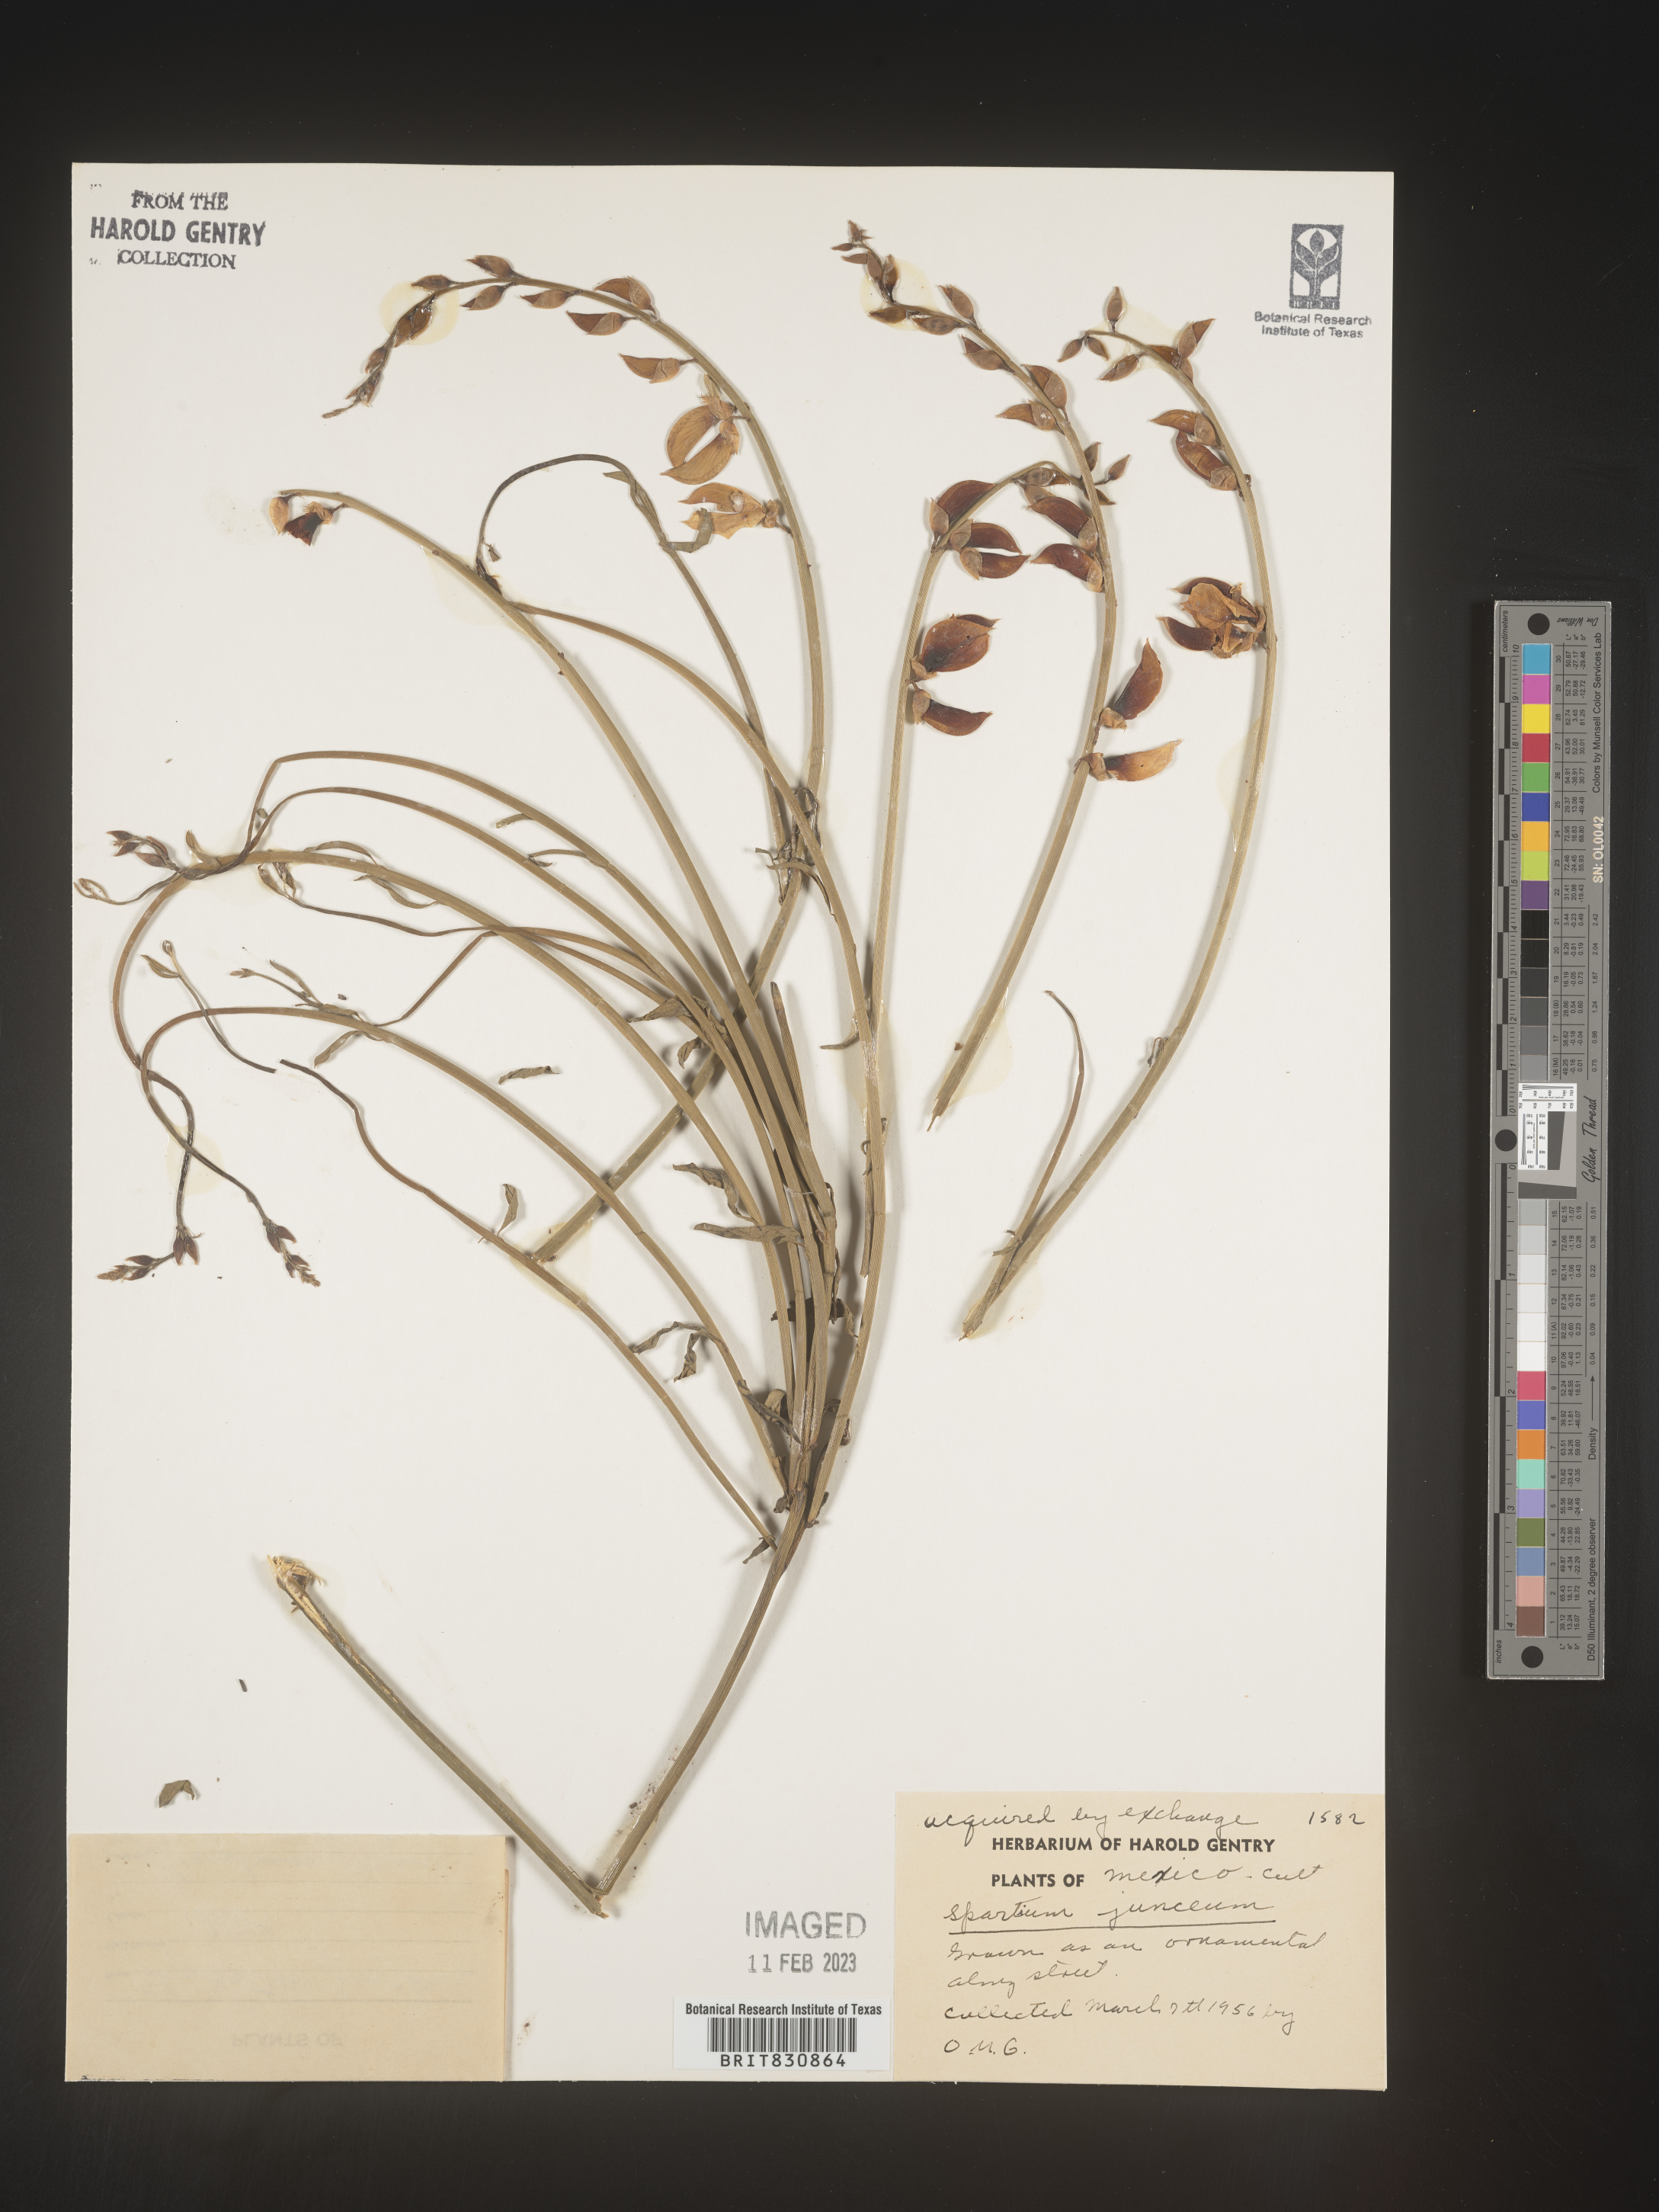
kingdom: Plantae
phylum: Tracheophyta
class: Magnoliopsida
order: Fabales
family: Fabaceae
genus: Spartium
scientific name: Spartium
